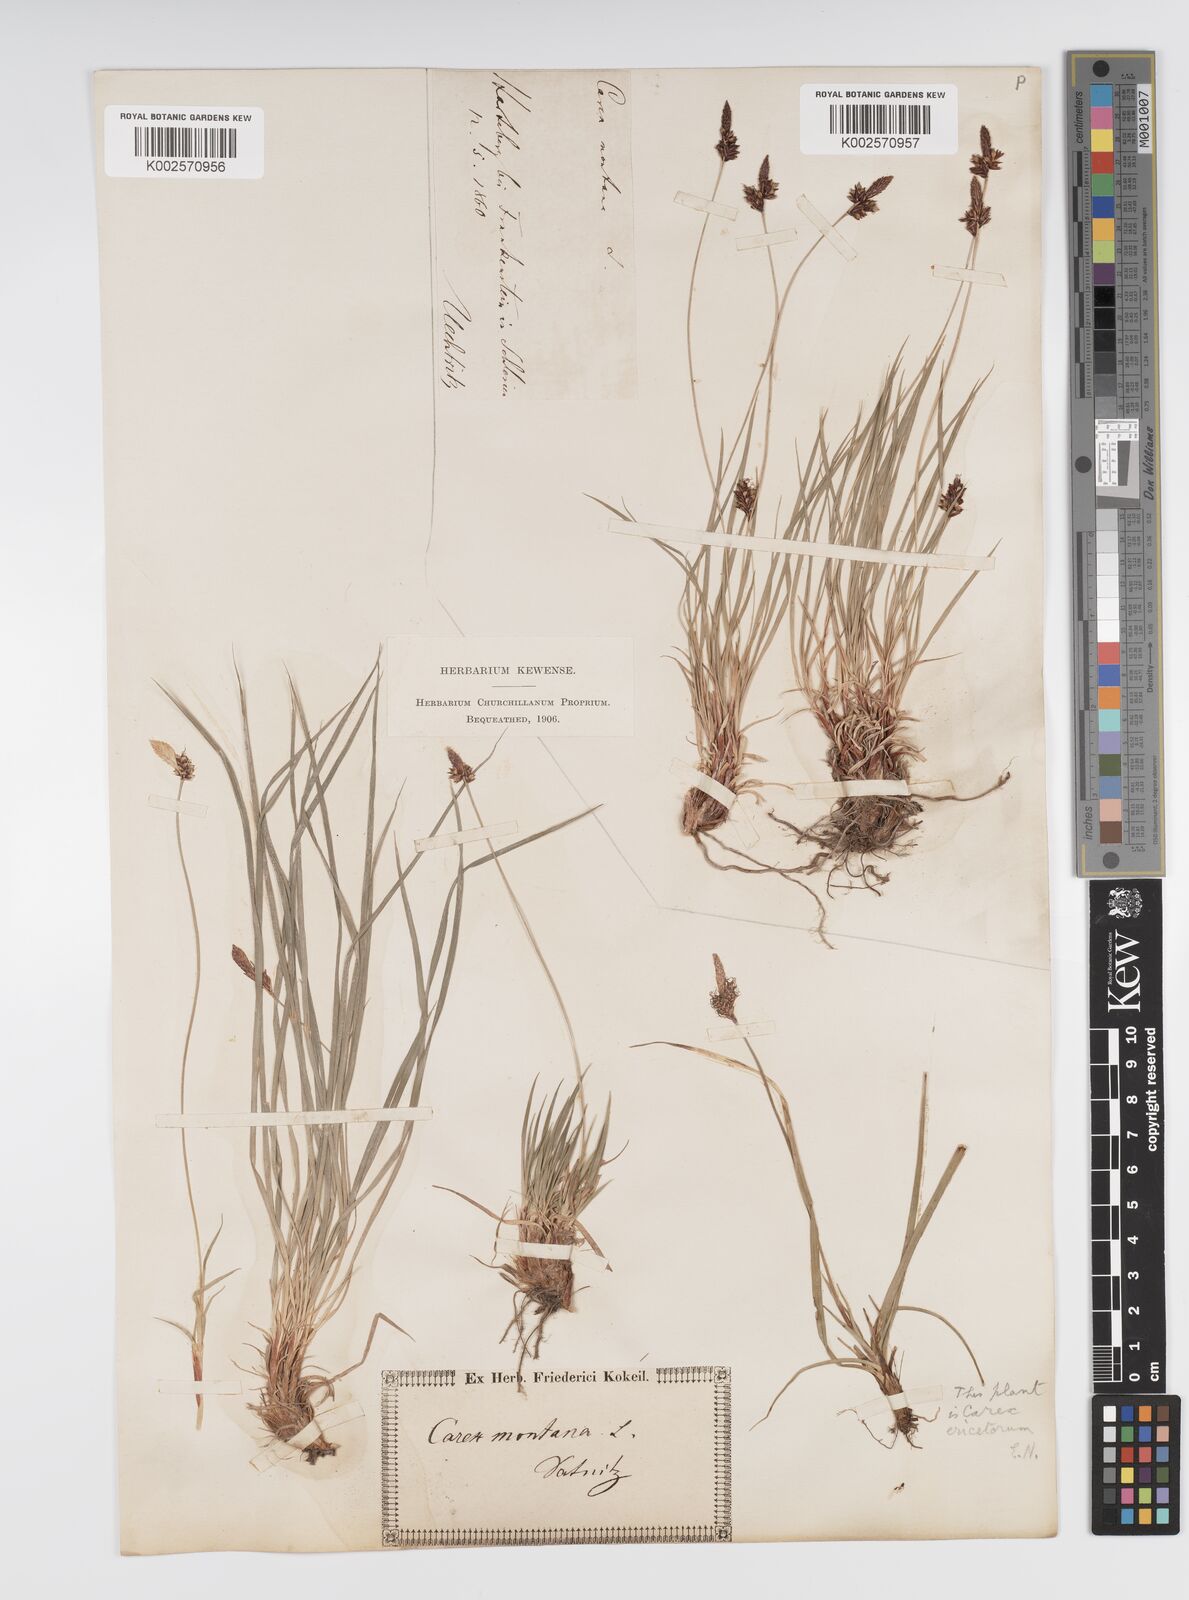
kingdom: Plantae
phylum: Tracheophyta
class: Liliopsida
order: Poales
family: Cyperaceae
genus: Carex
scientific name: Carex montana
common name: Soft-leaved sedge
